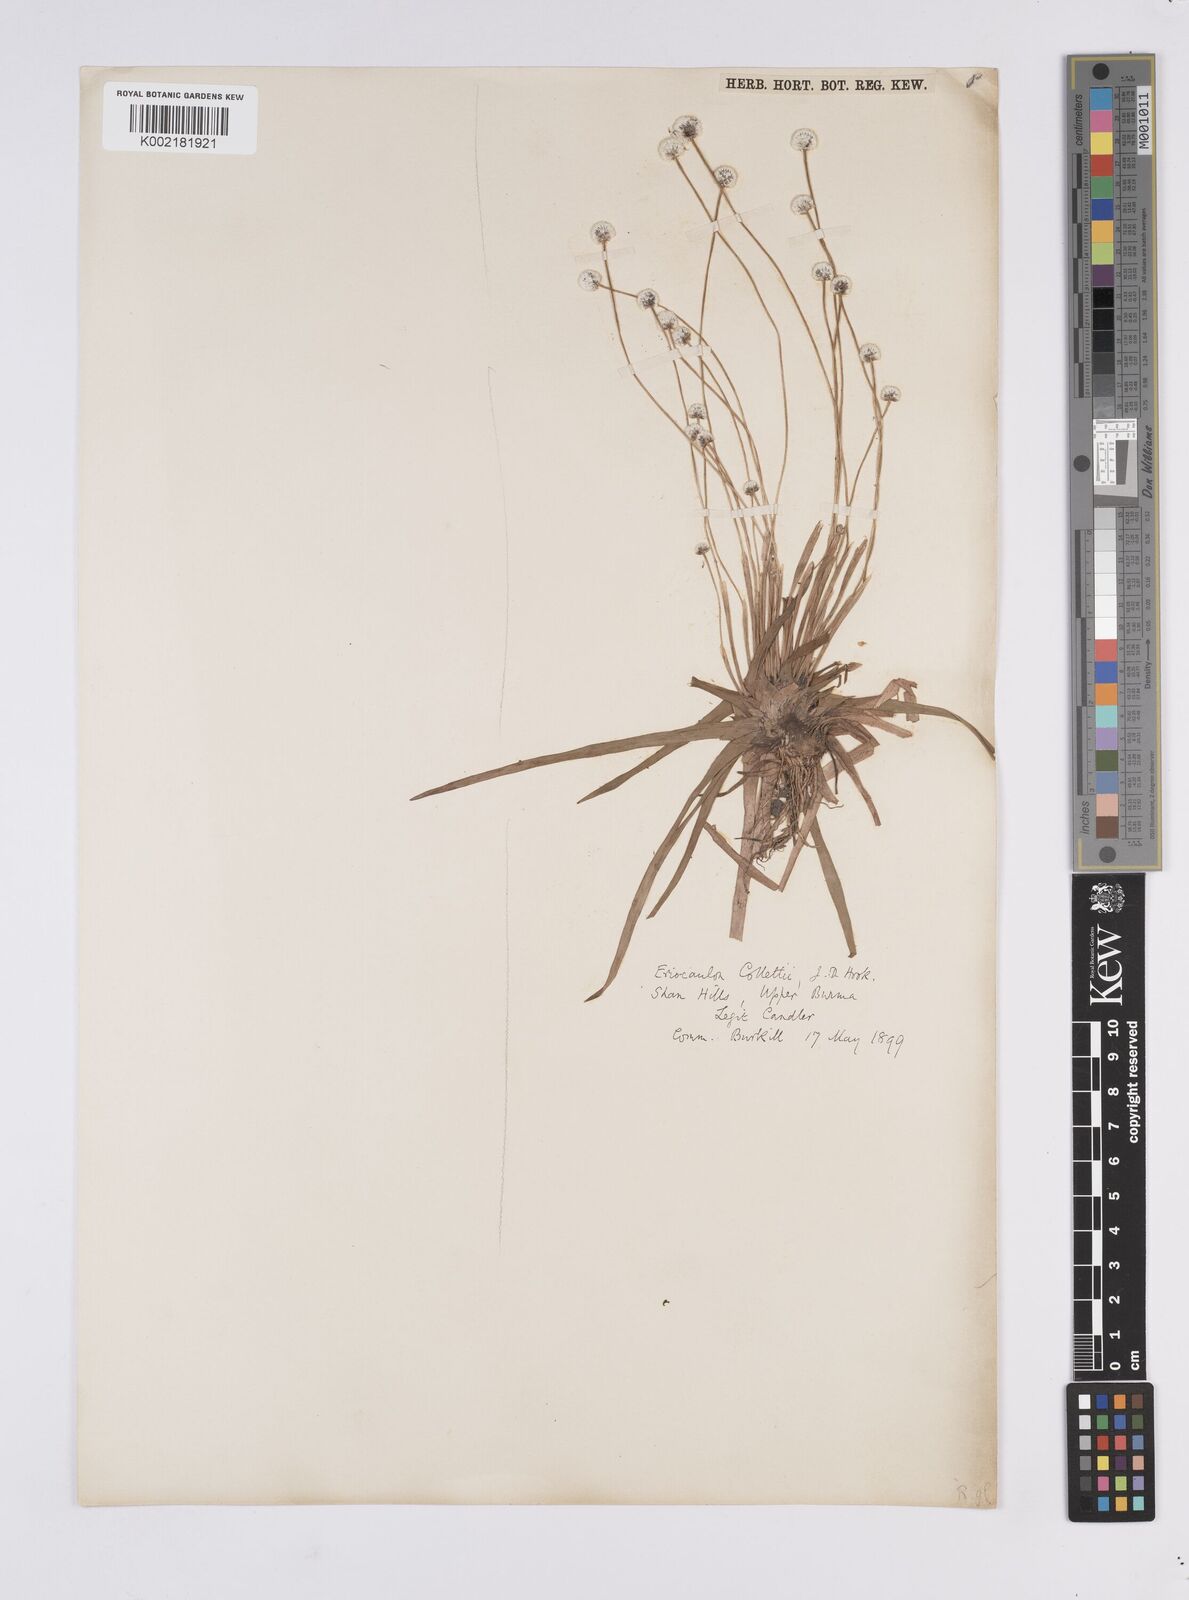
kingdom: Plantae
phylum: Tracheophyta
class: Liliopsida
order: Poales
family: Eriocaulaceae
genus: Eriocaulon
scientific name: Eriocaulon collettii
